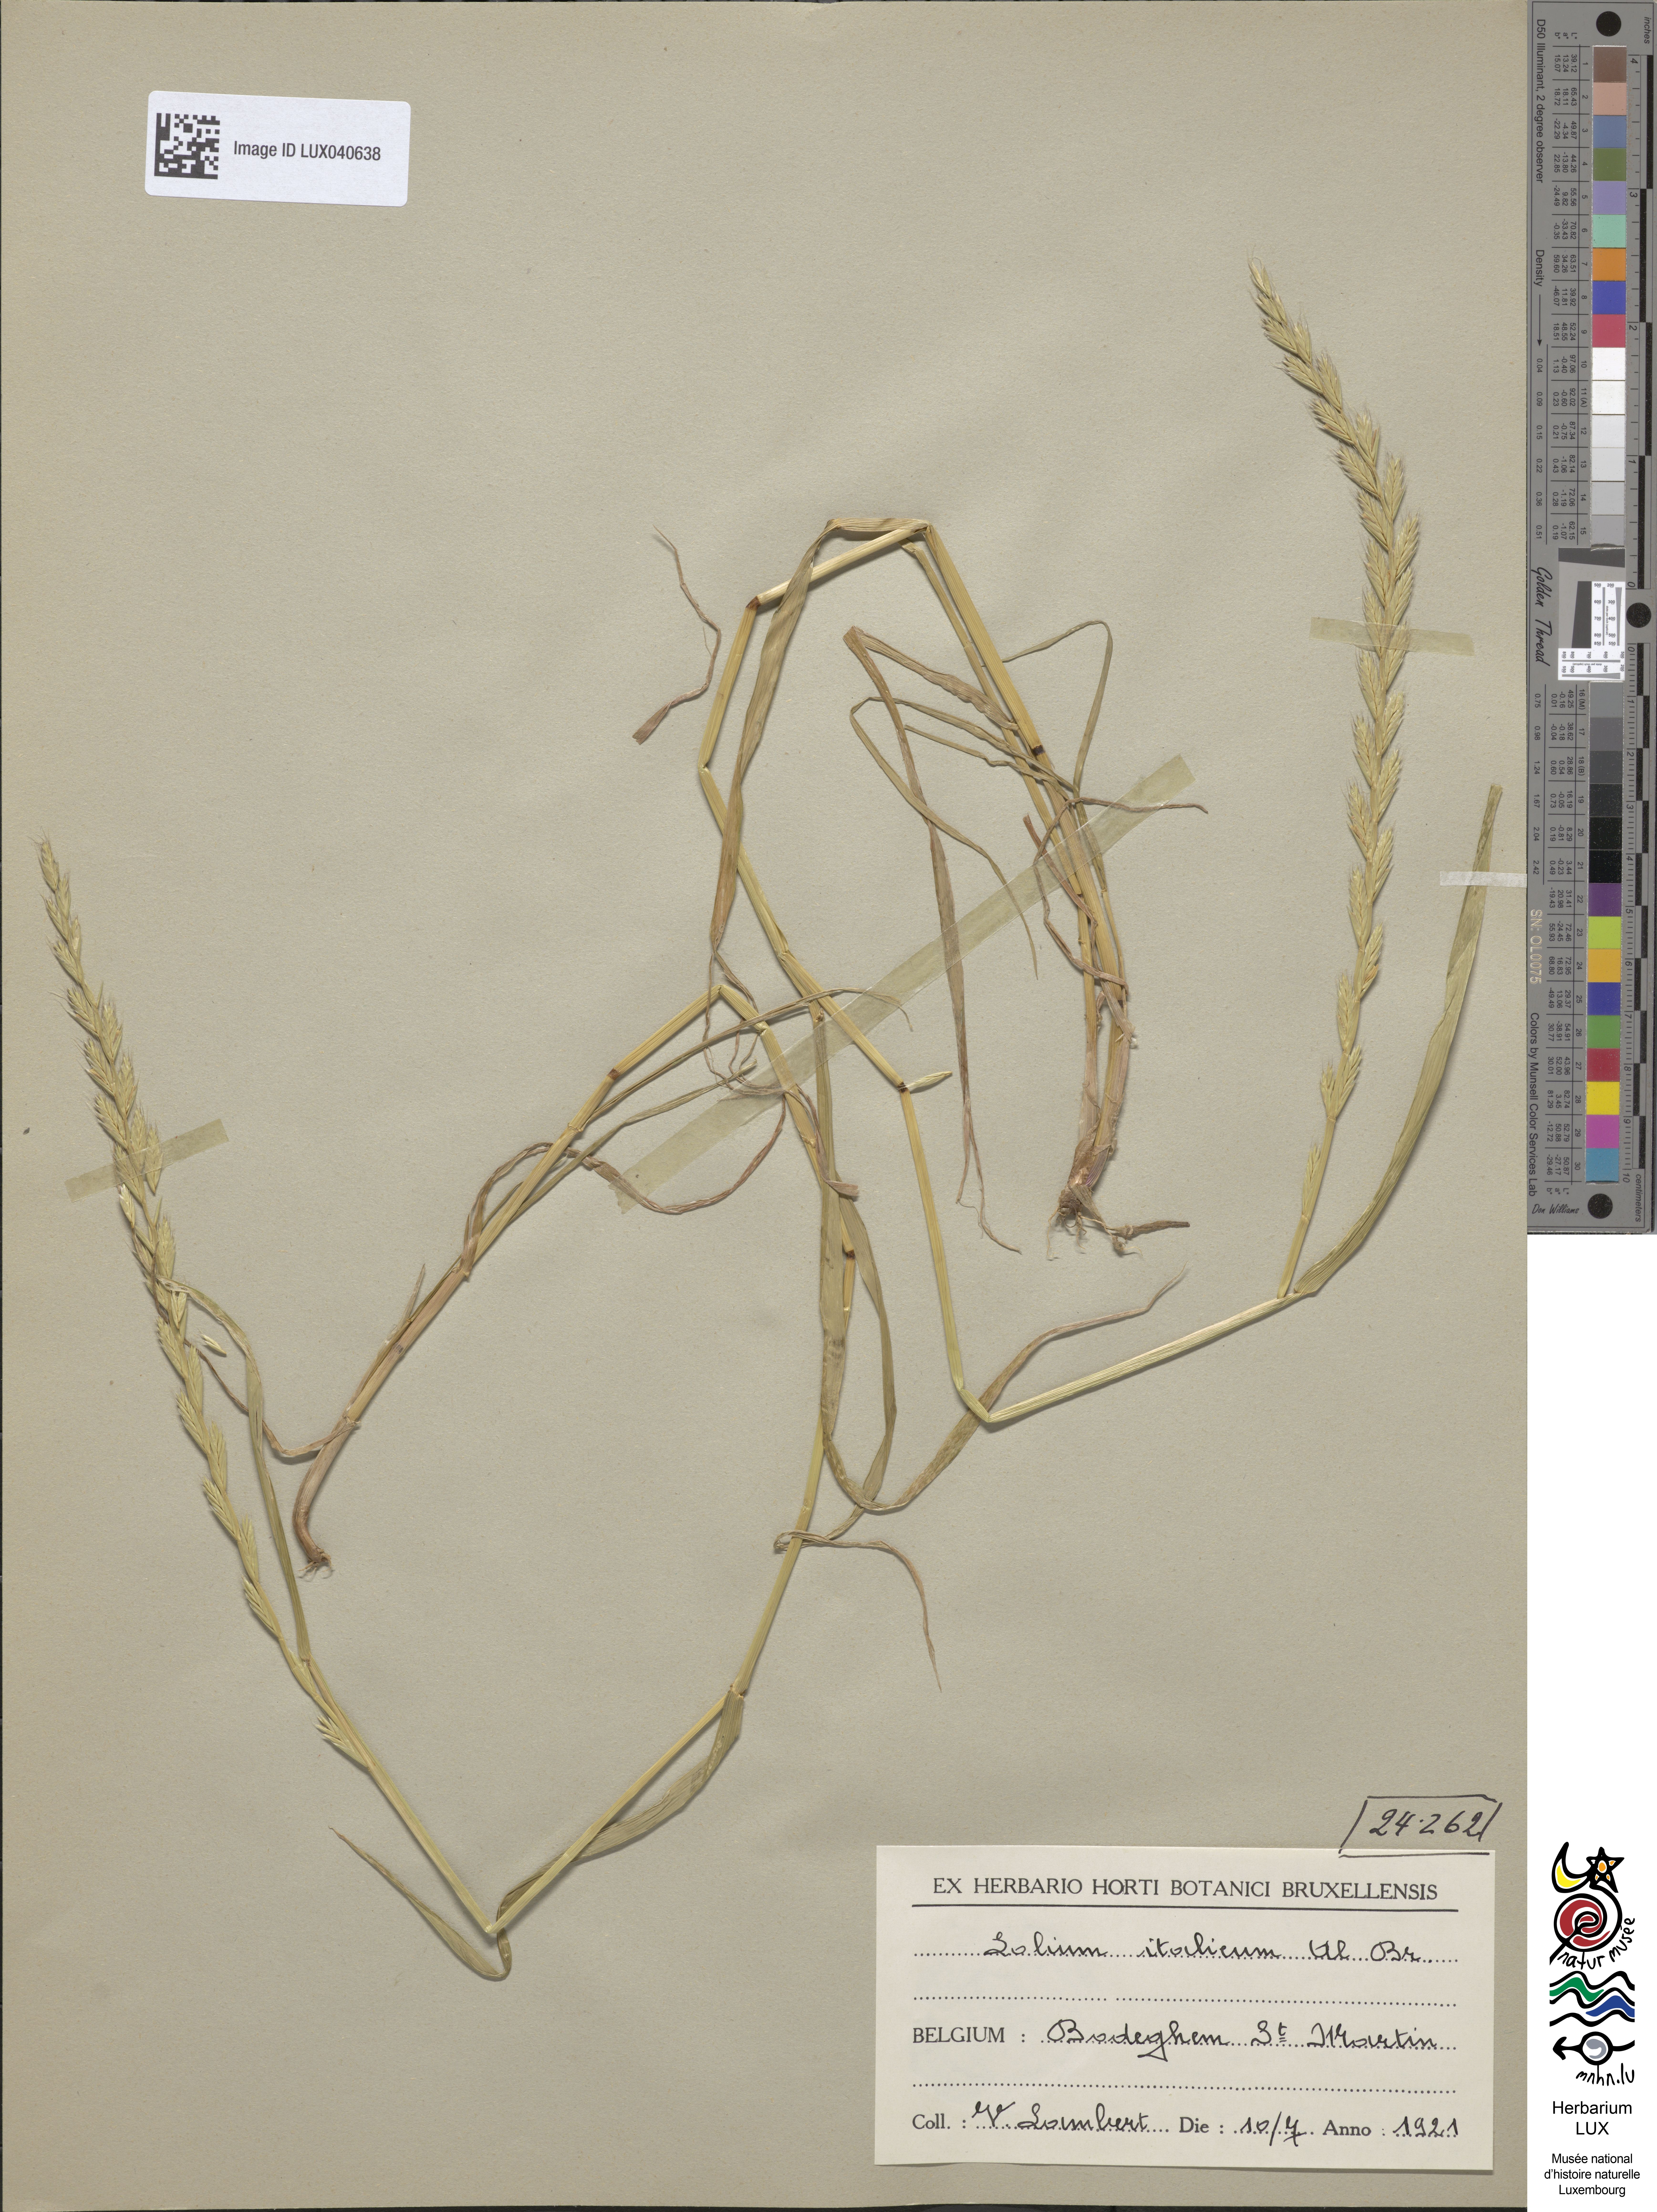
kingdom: Plantae
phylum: Tracheophyta
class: Liliopsida
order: Poales
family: Poaceae
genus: Lolium
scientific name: Lolium multiflorum
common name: Annual ryegrass
